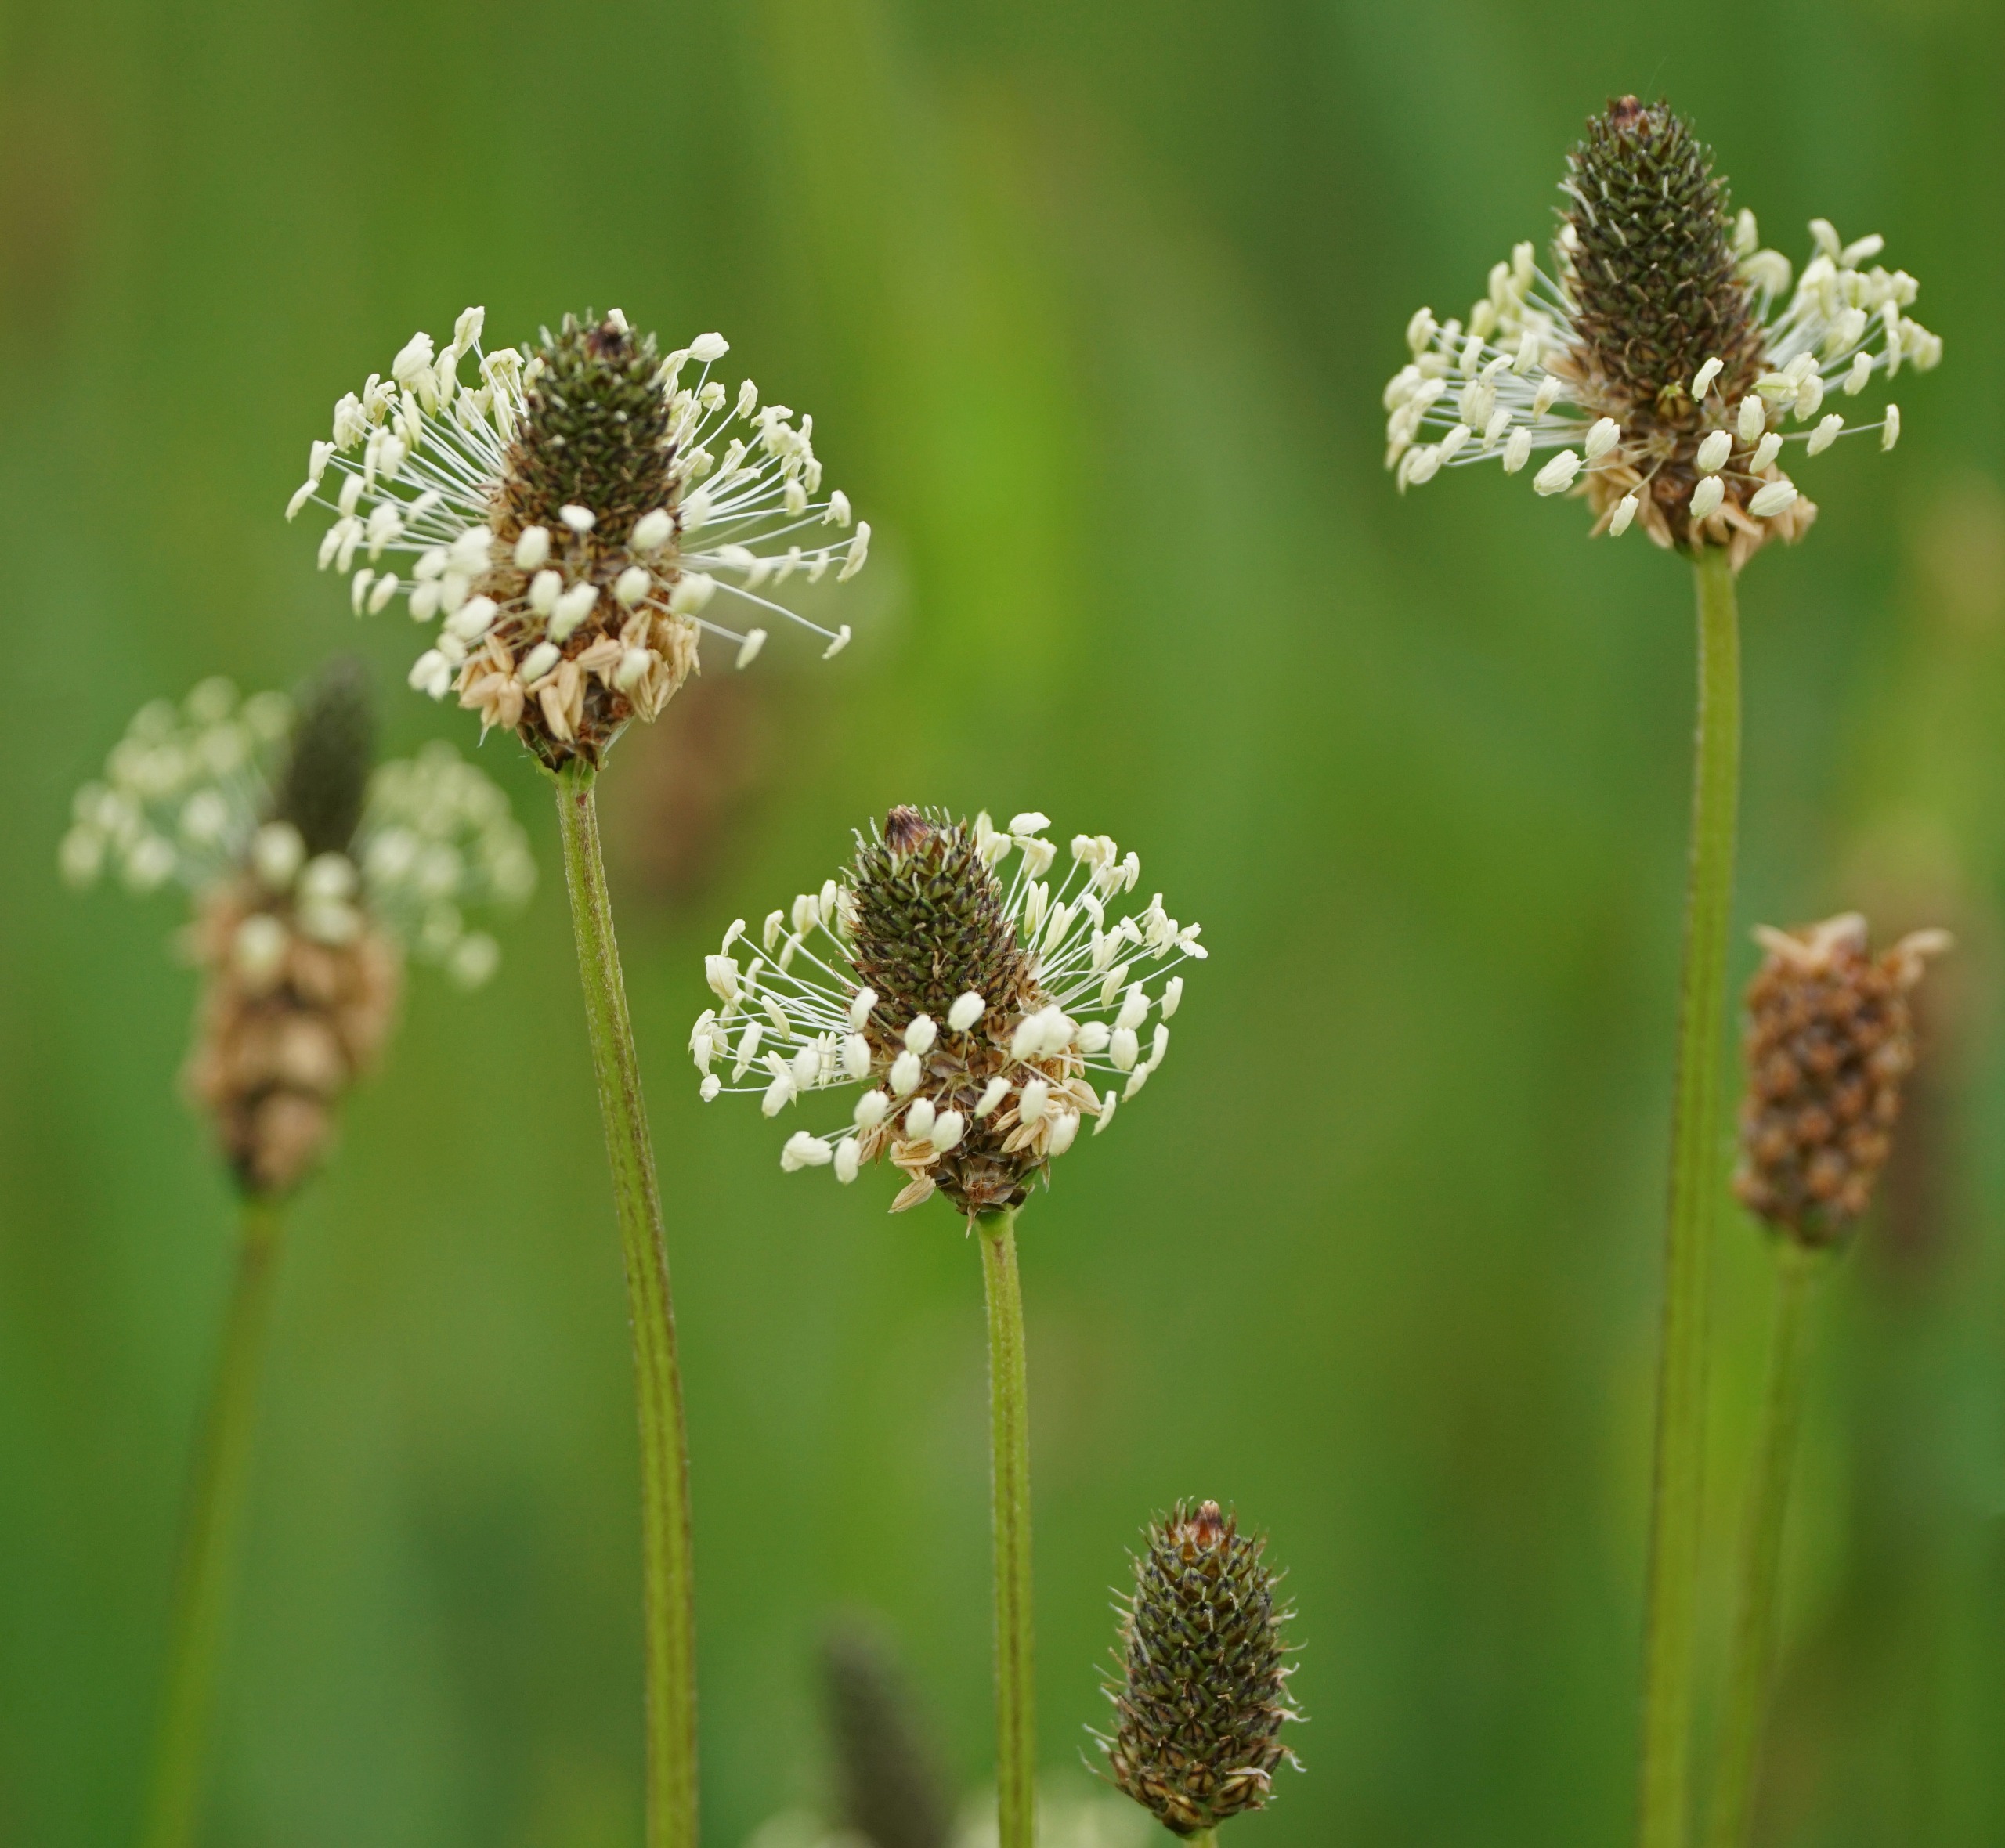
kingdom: Plantae
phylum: Tracheophyta
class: Magnoliopsida
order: Lamiales
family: Plantaginaceae
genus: Plantago
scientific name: Plantago lanceolata
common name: Lancet-vejbred
